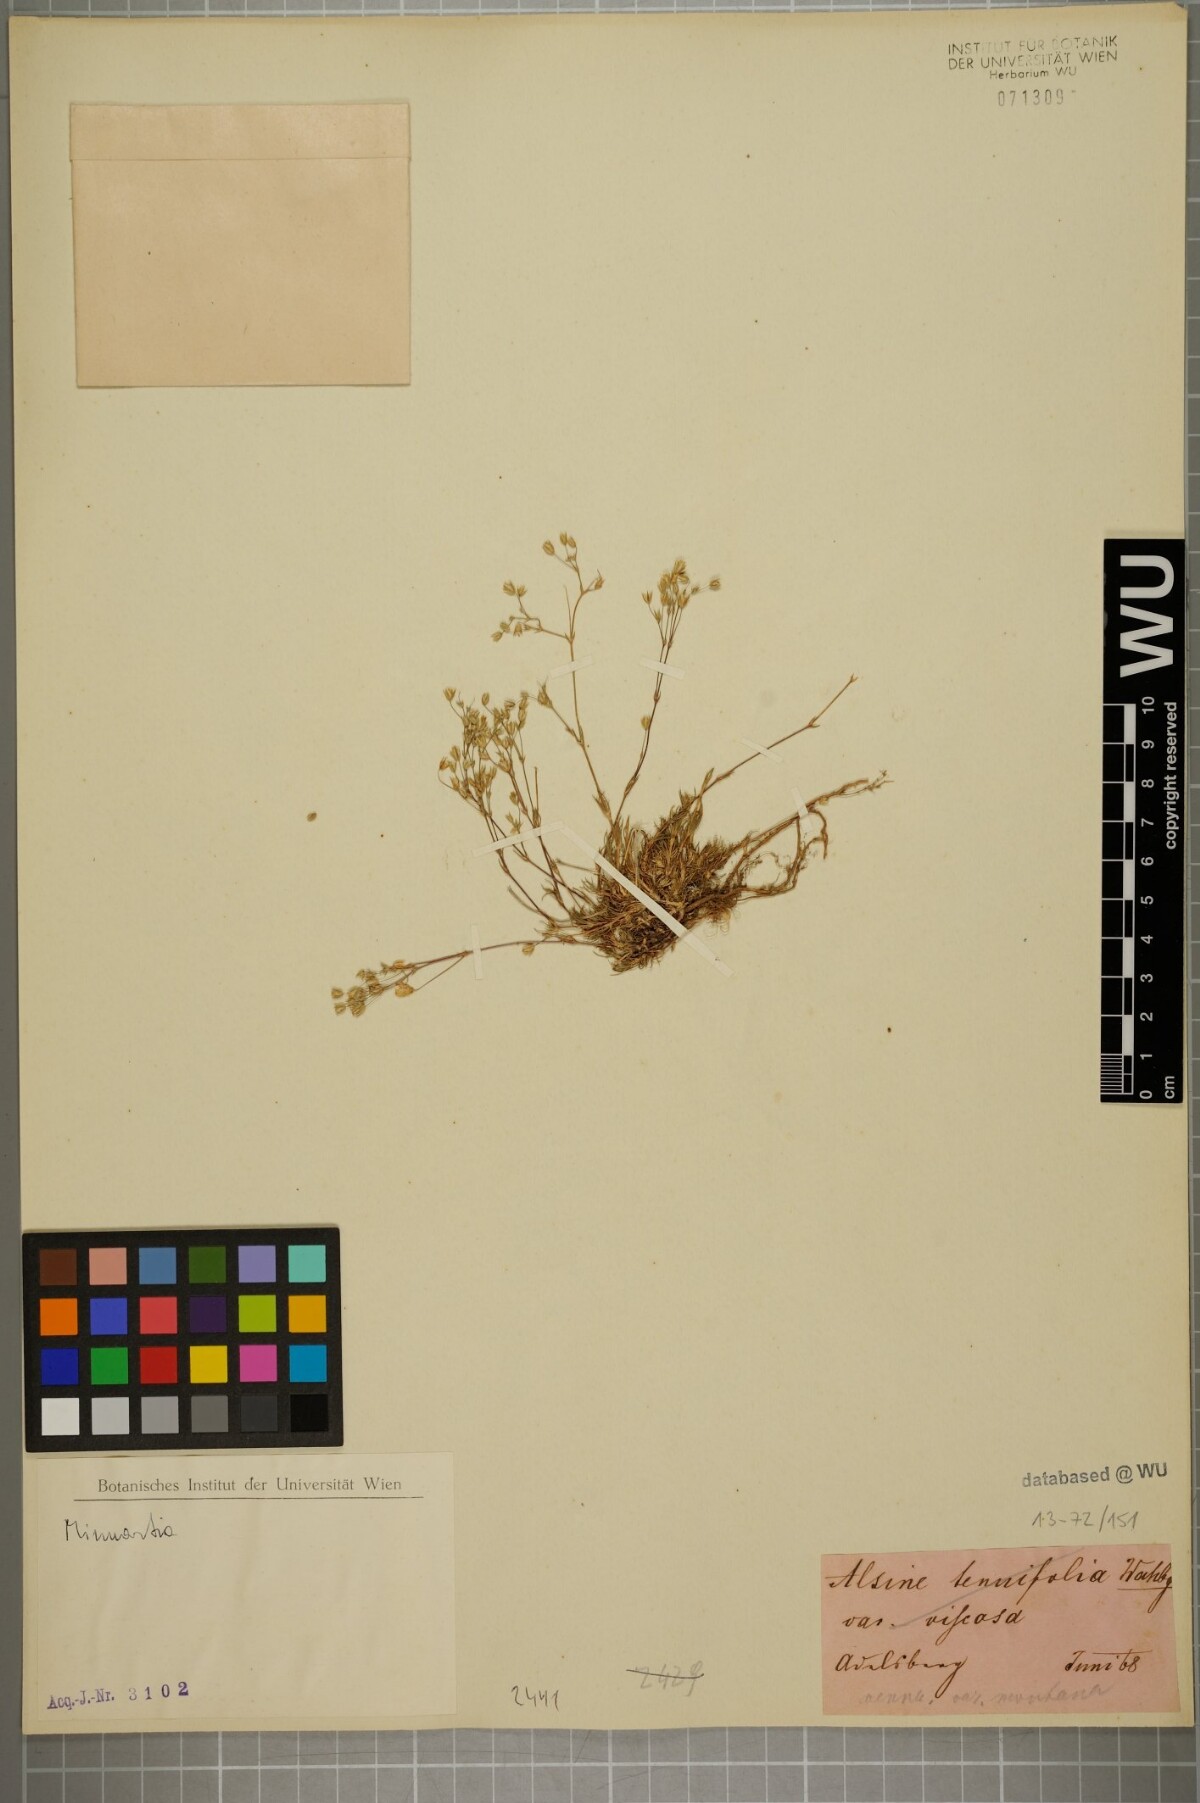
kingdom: Plantae
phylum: Tracheophyta
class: Magnoliopsida
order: Caryophyllales
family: Caryophyllaceae
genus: Sabulina
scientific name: Sabulina verna
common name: Spring sandwort
